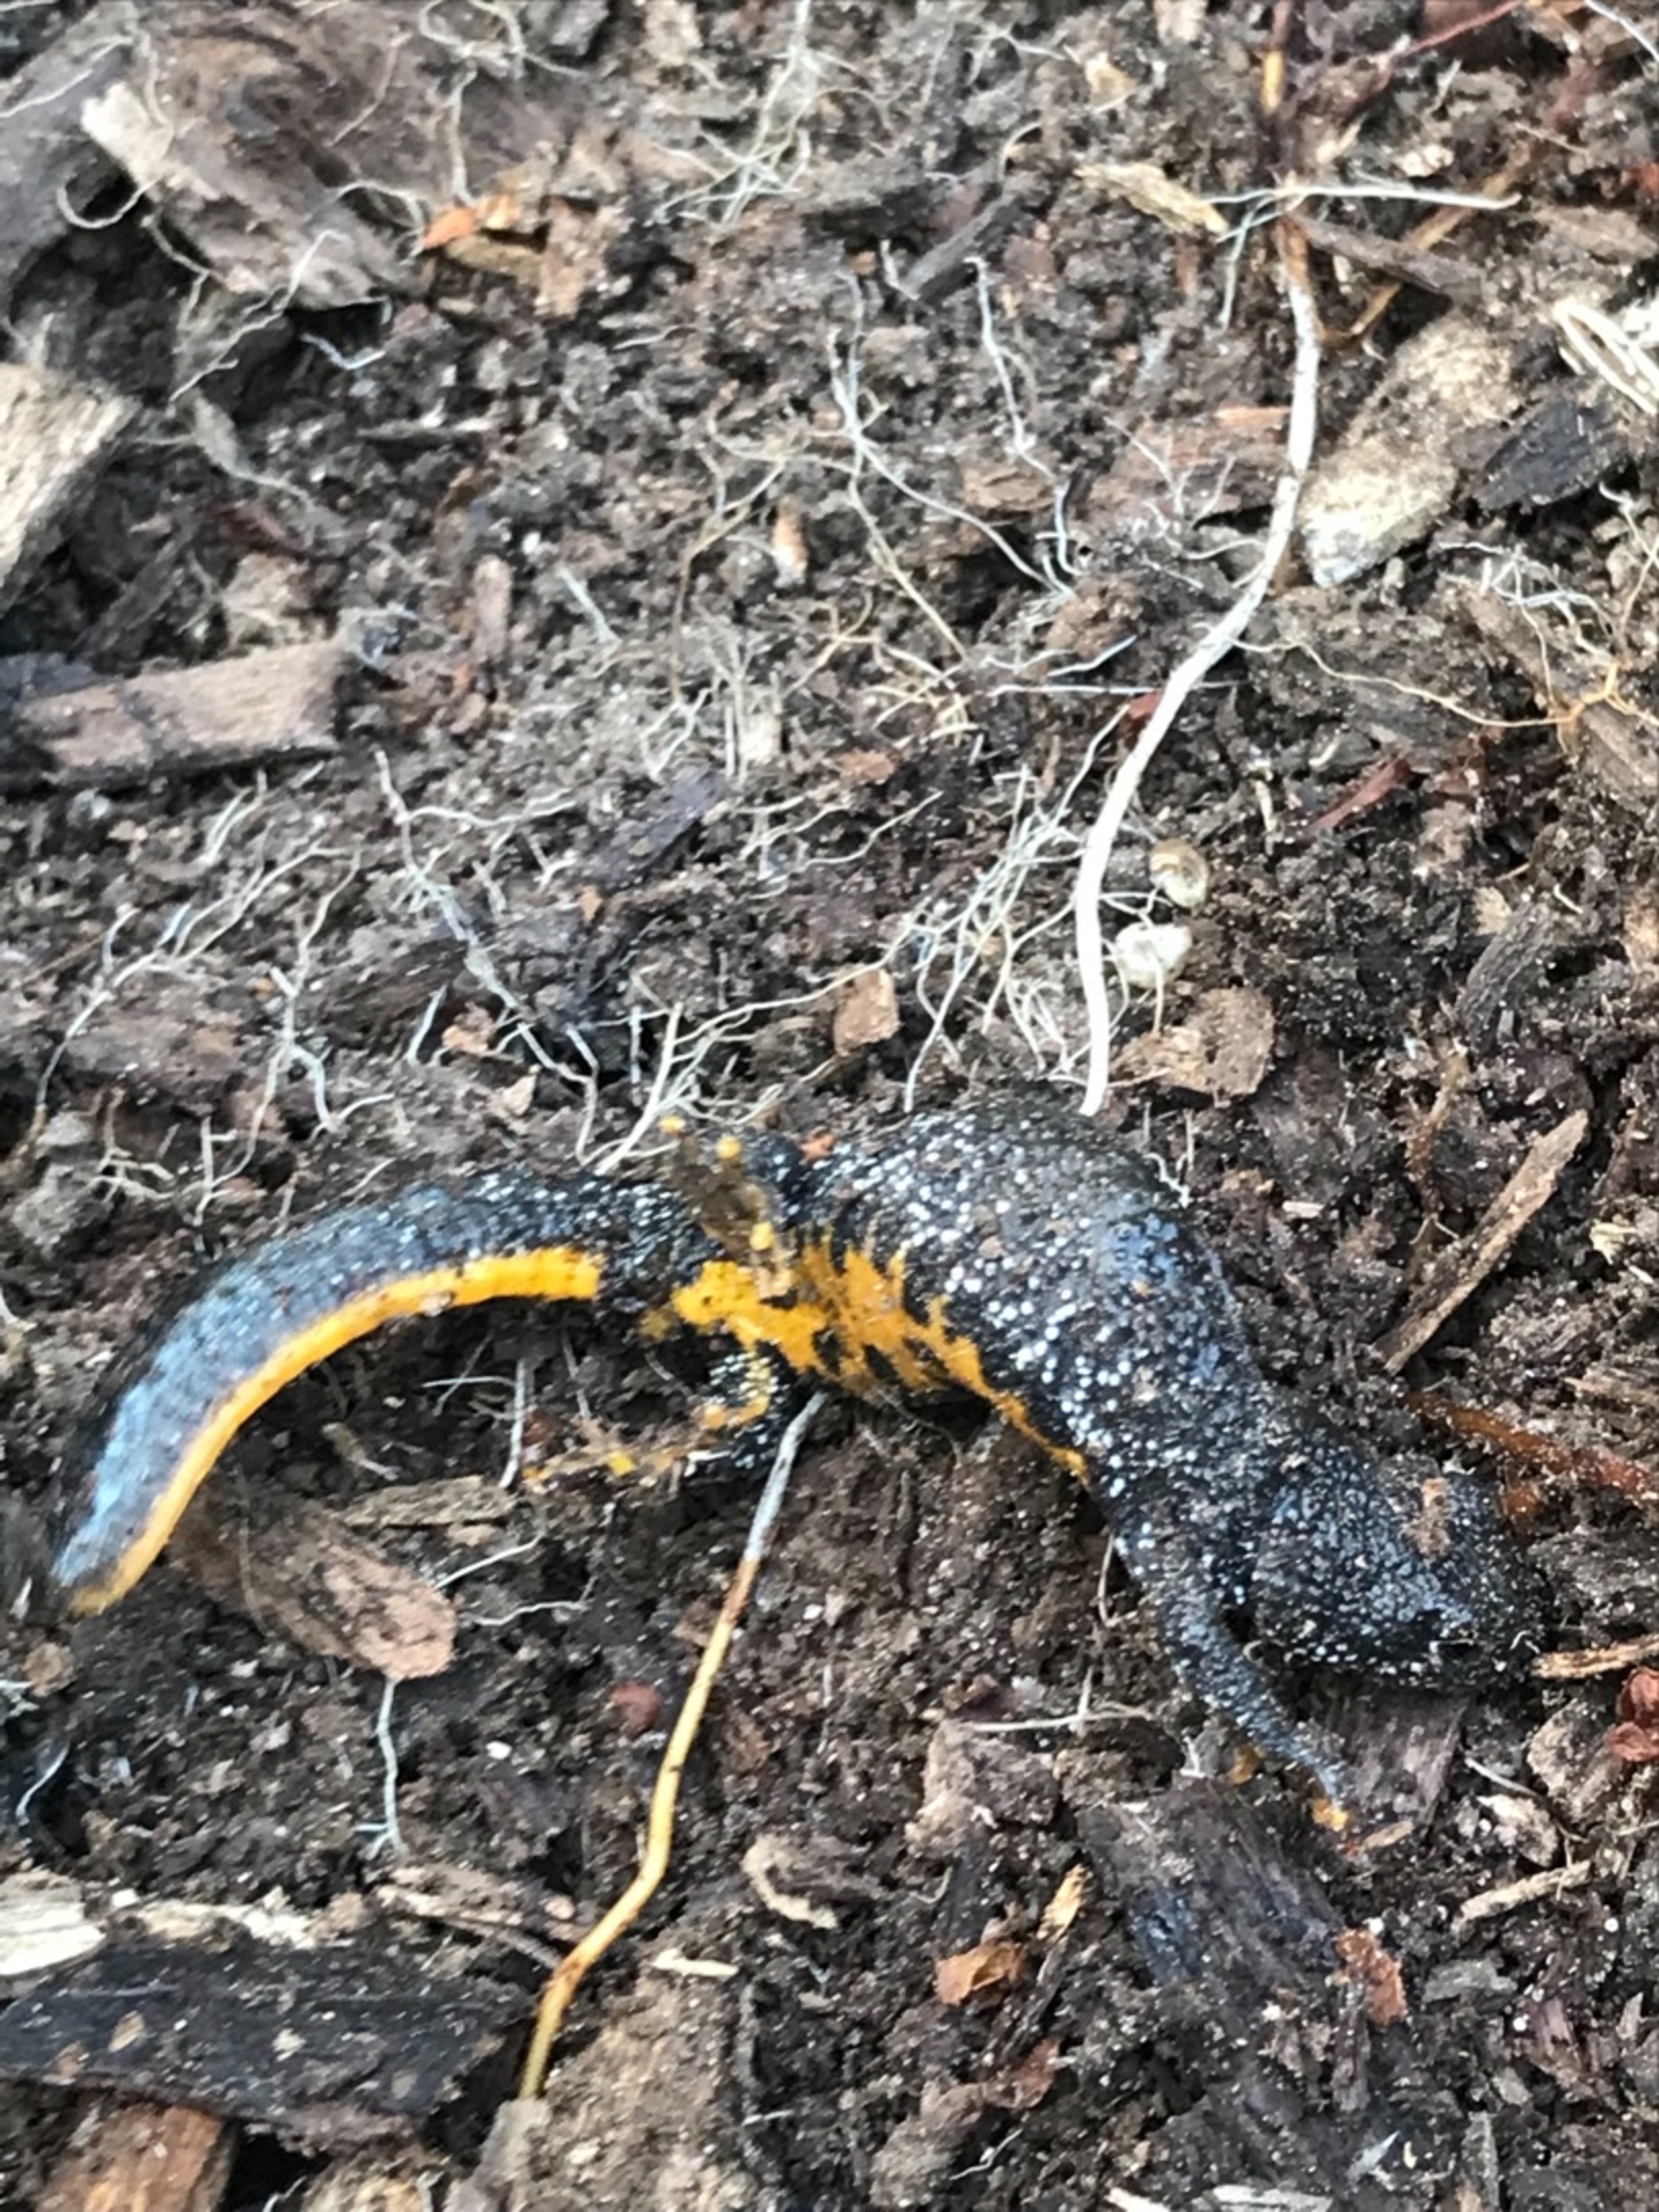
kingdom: Animalia
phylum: Chordata
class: Amphibia
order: Caudata
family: Salamandridae
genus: Triturus
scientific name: Triturus cristatus
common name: Stor vandsalamander
